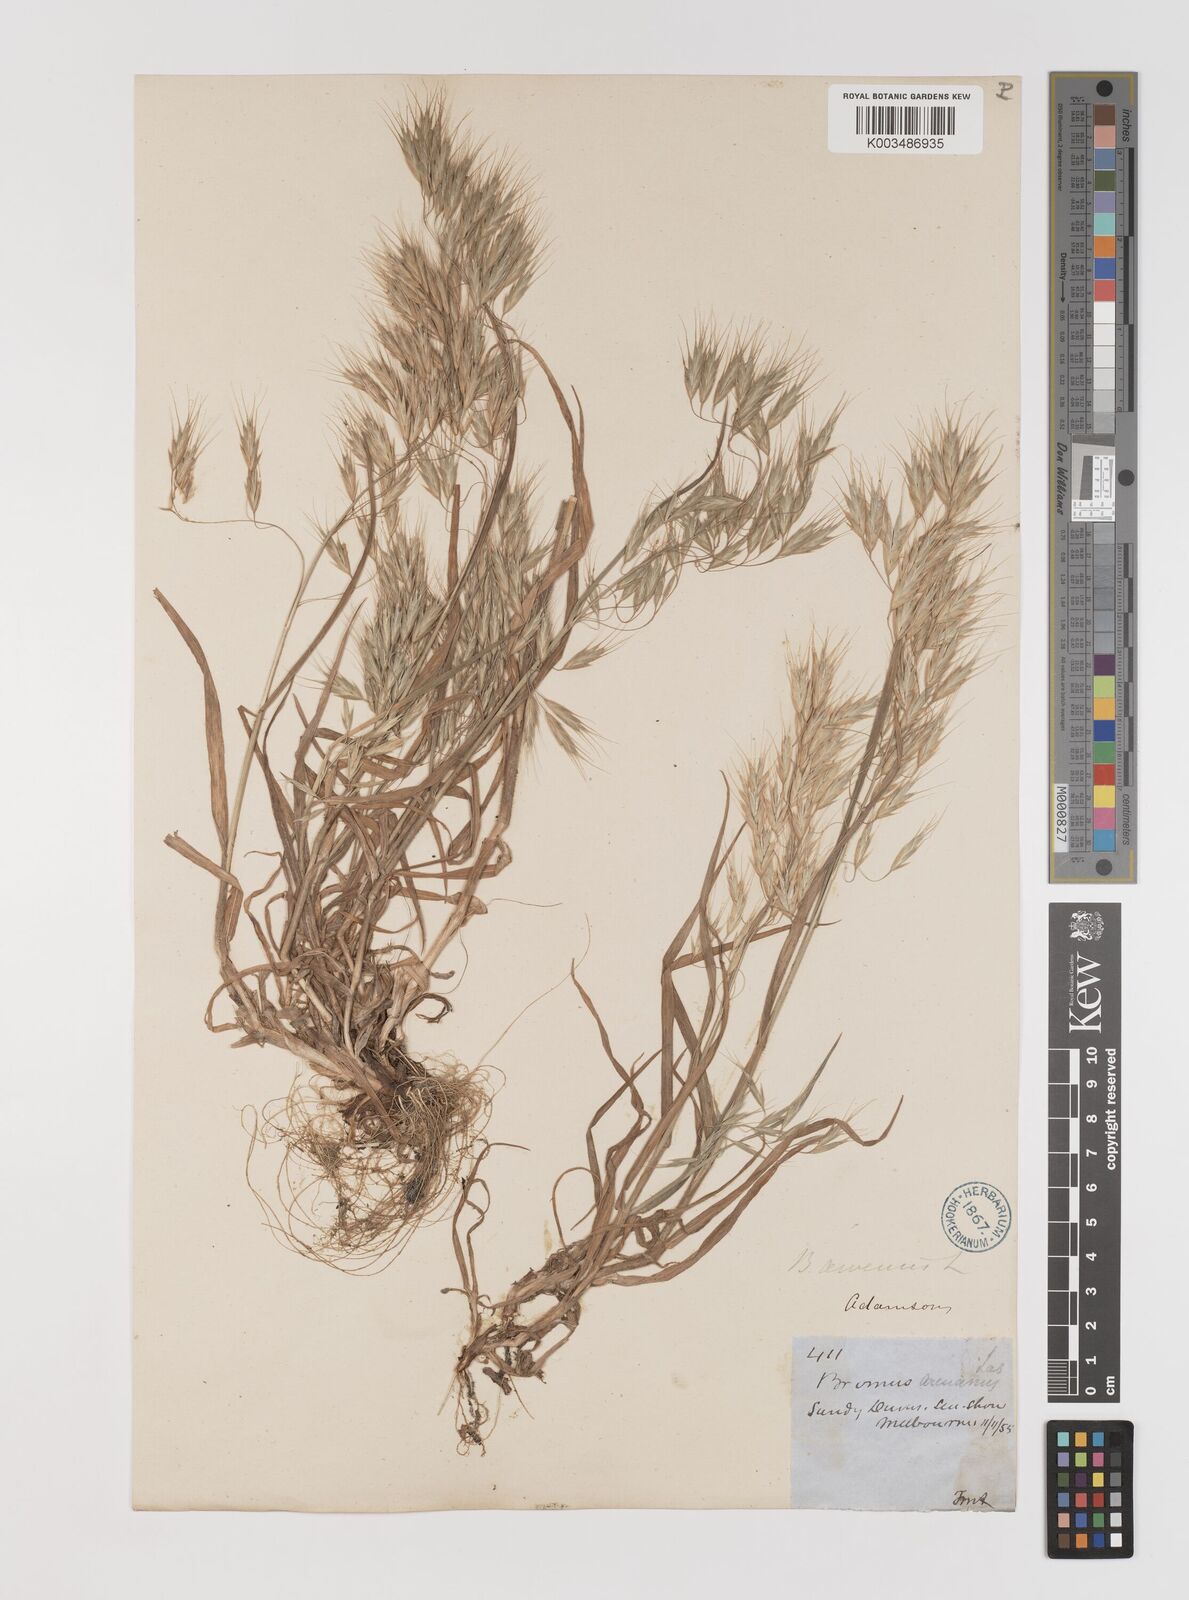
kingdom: Plantae
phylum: Tracheophyta
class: Liliopsida
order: Poales
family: Poaceae
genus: Bromus
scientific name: Bromus arenarius
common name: Australian brome
